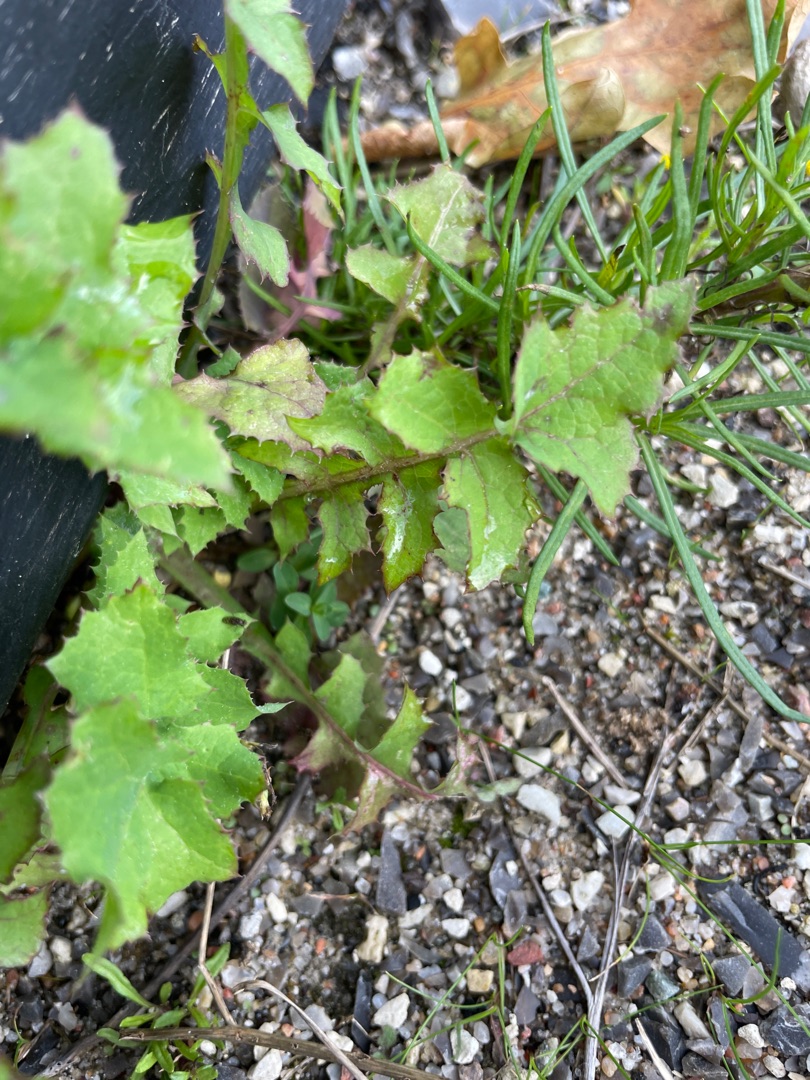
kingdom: Plantae
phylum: Tracheophyta
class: Magnoliopsida
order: Asterales
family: Asteraceae
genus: Sonchus
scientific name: Sonchus oleraceus
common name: Almindelig svinemælk
